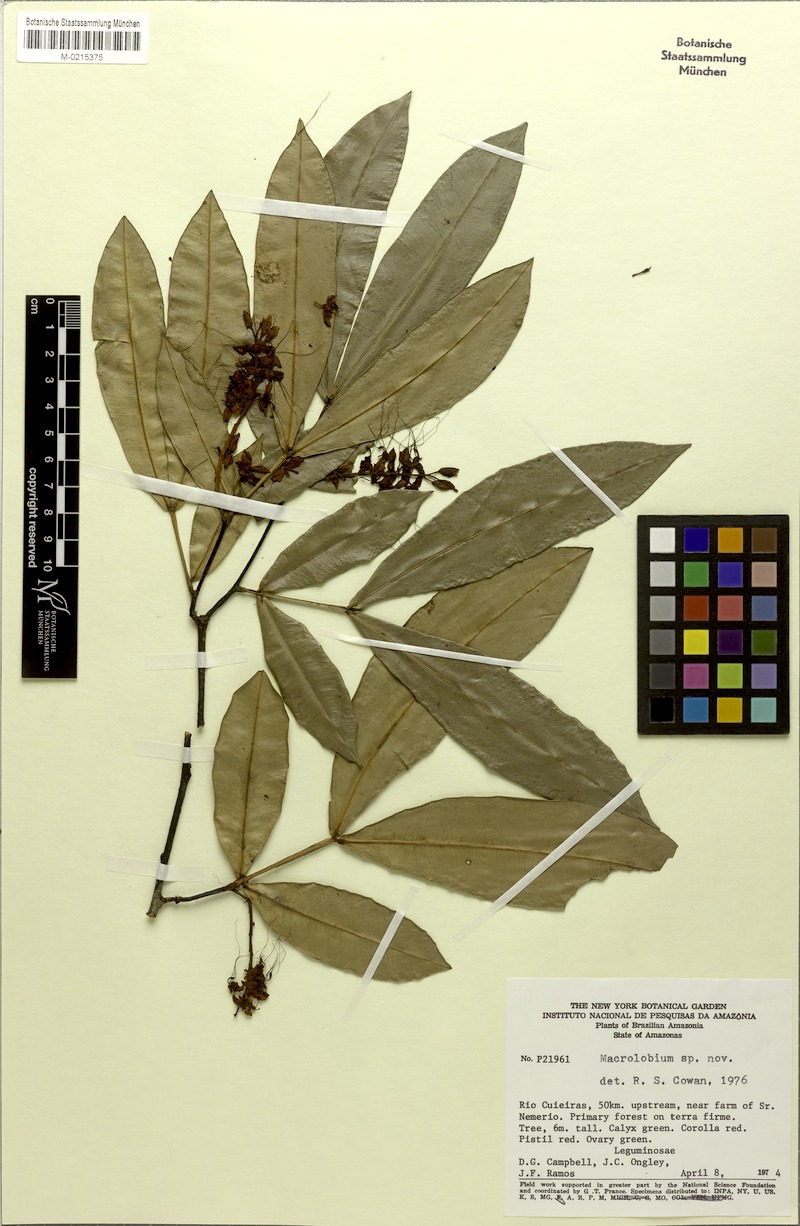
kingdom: Plantae
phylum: Tracheophyta
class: Magnoliopsida
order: Fabales
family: Fabaceae
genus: Macrolobium
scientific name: Macrolobium
